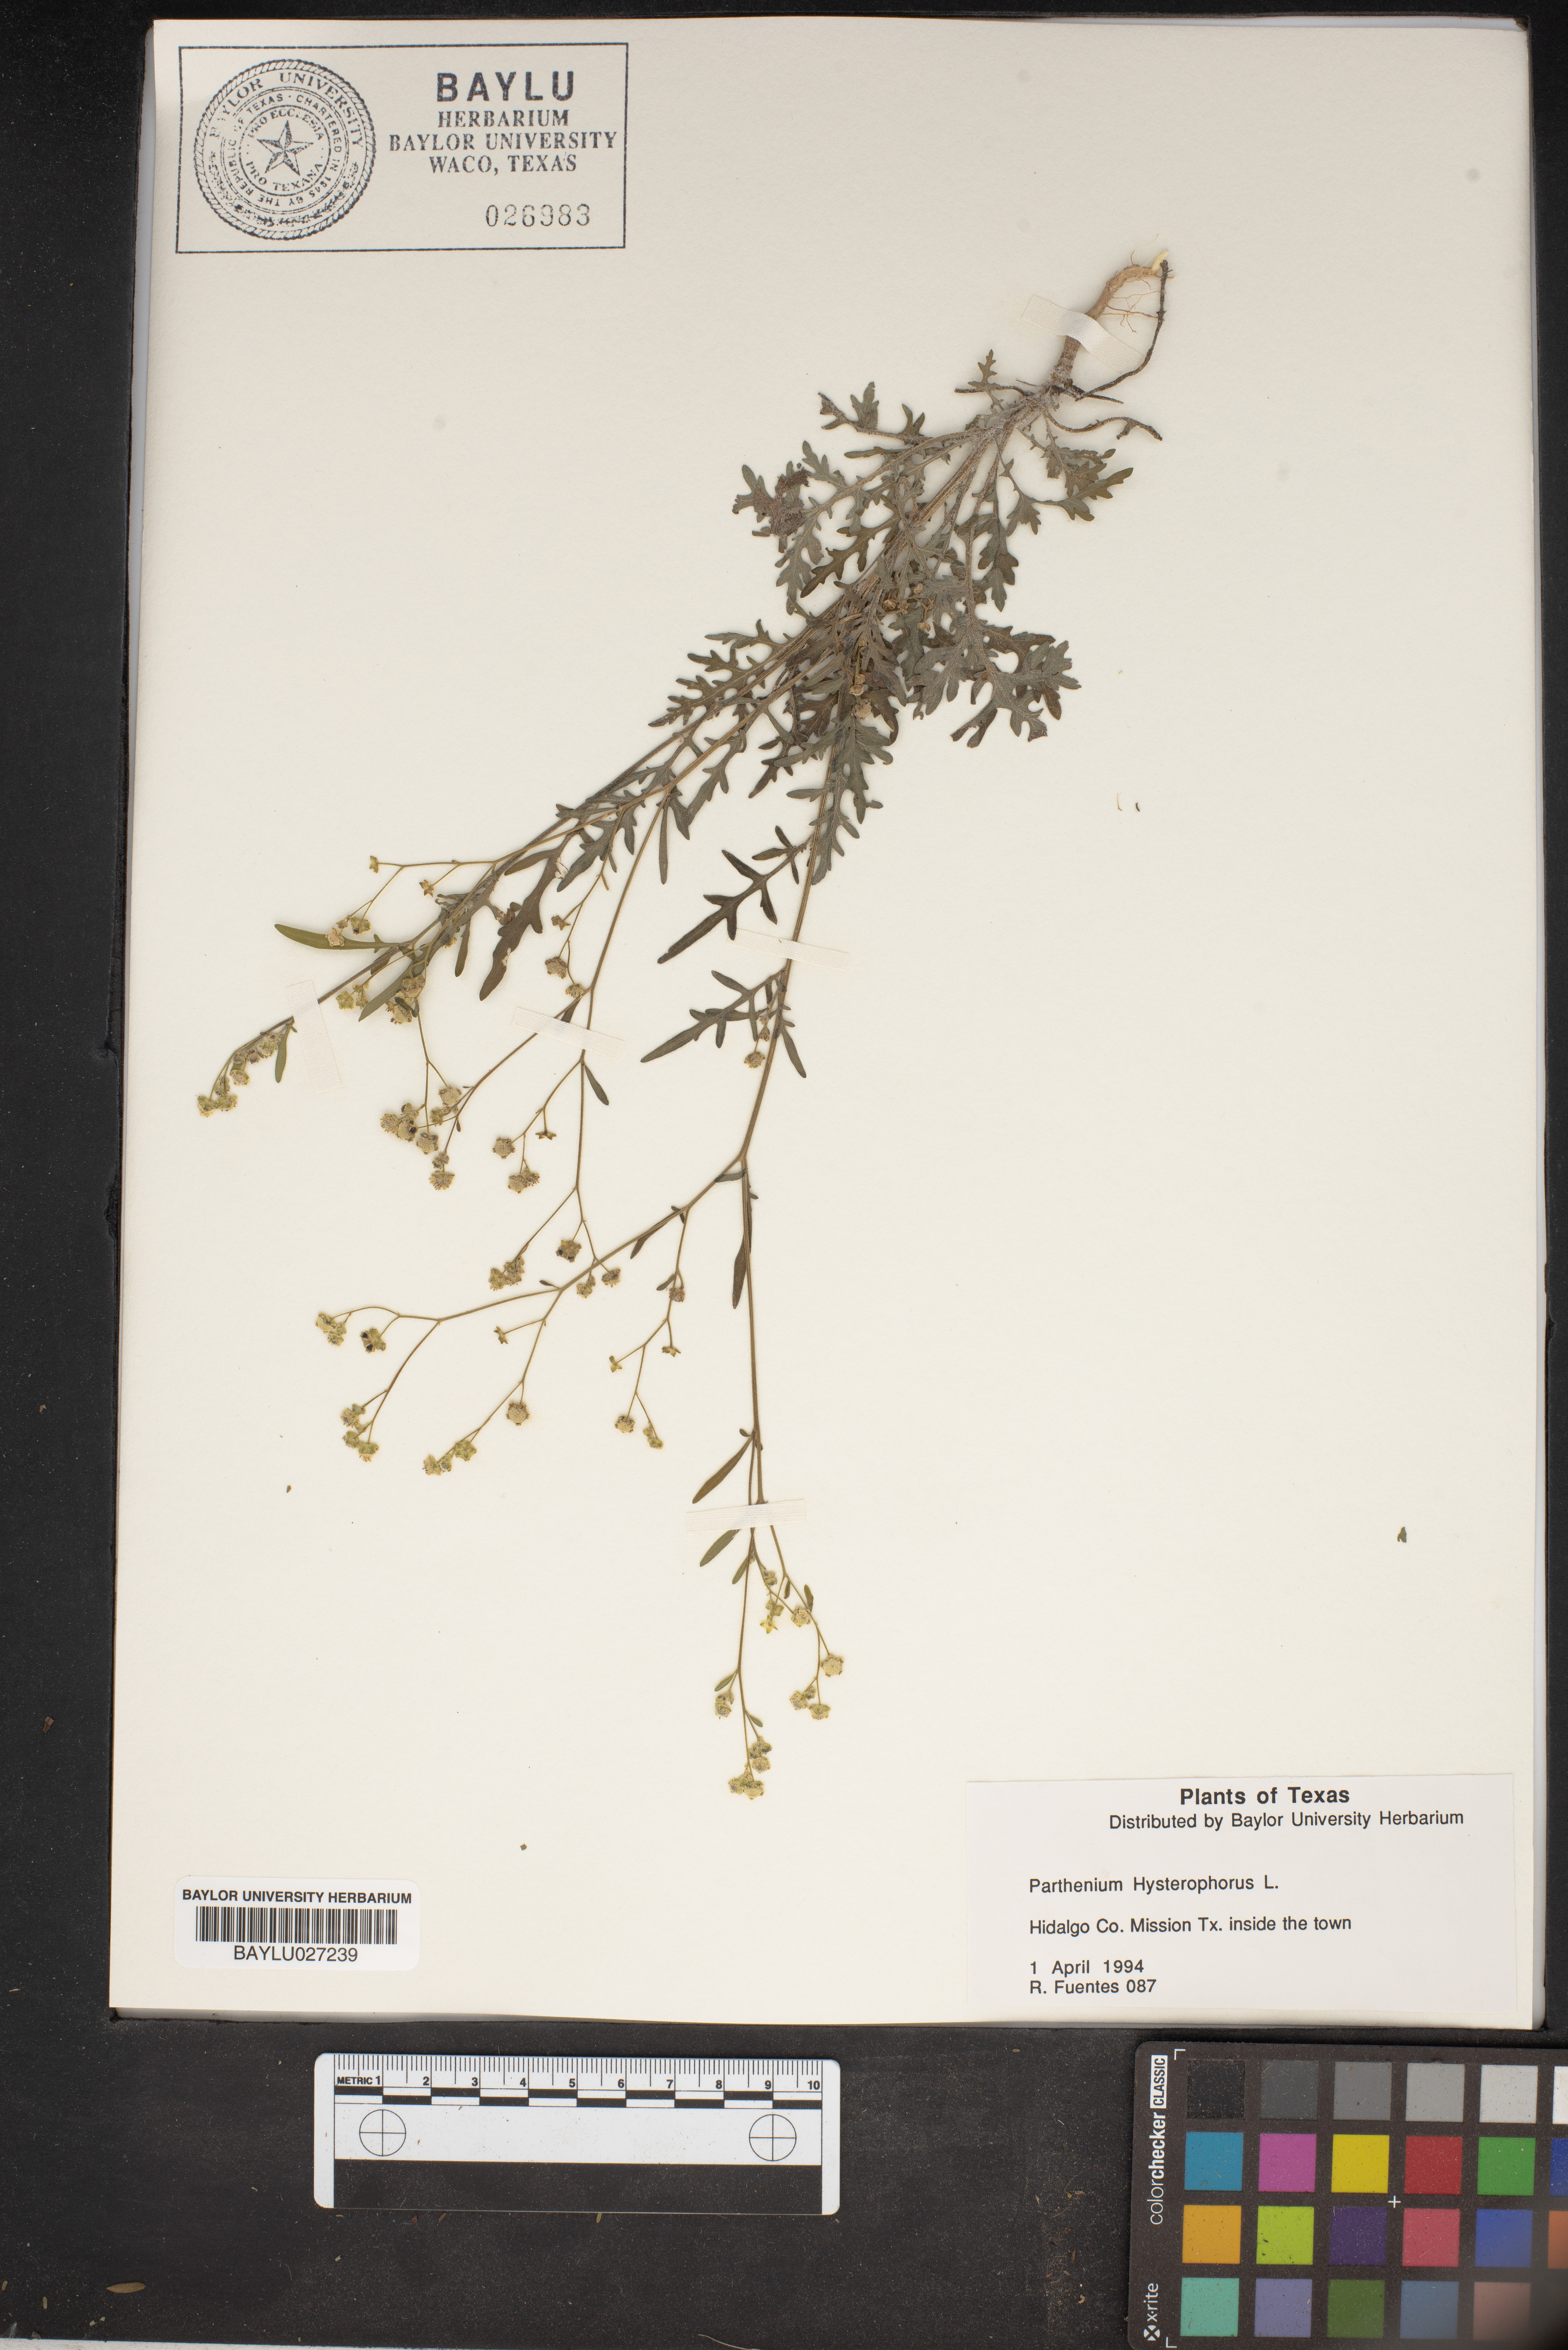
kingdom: Plantae
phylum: Tracheophyta
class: Magnoliopsida
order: Asterales
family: Asteraceae
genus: Parthenium
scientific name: Parthenium hysterophorus
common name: Santa maria feverfew
